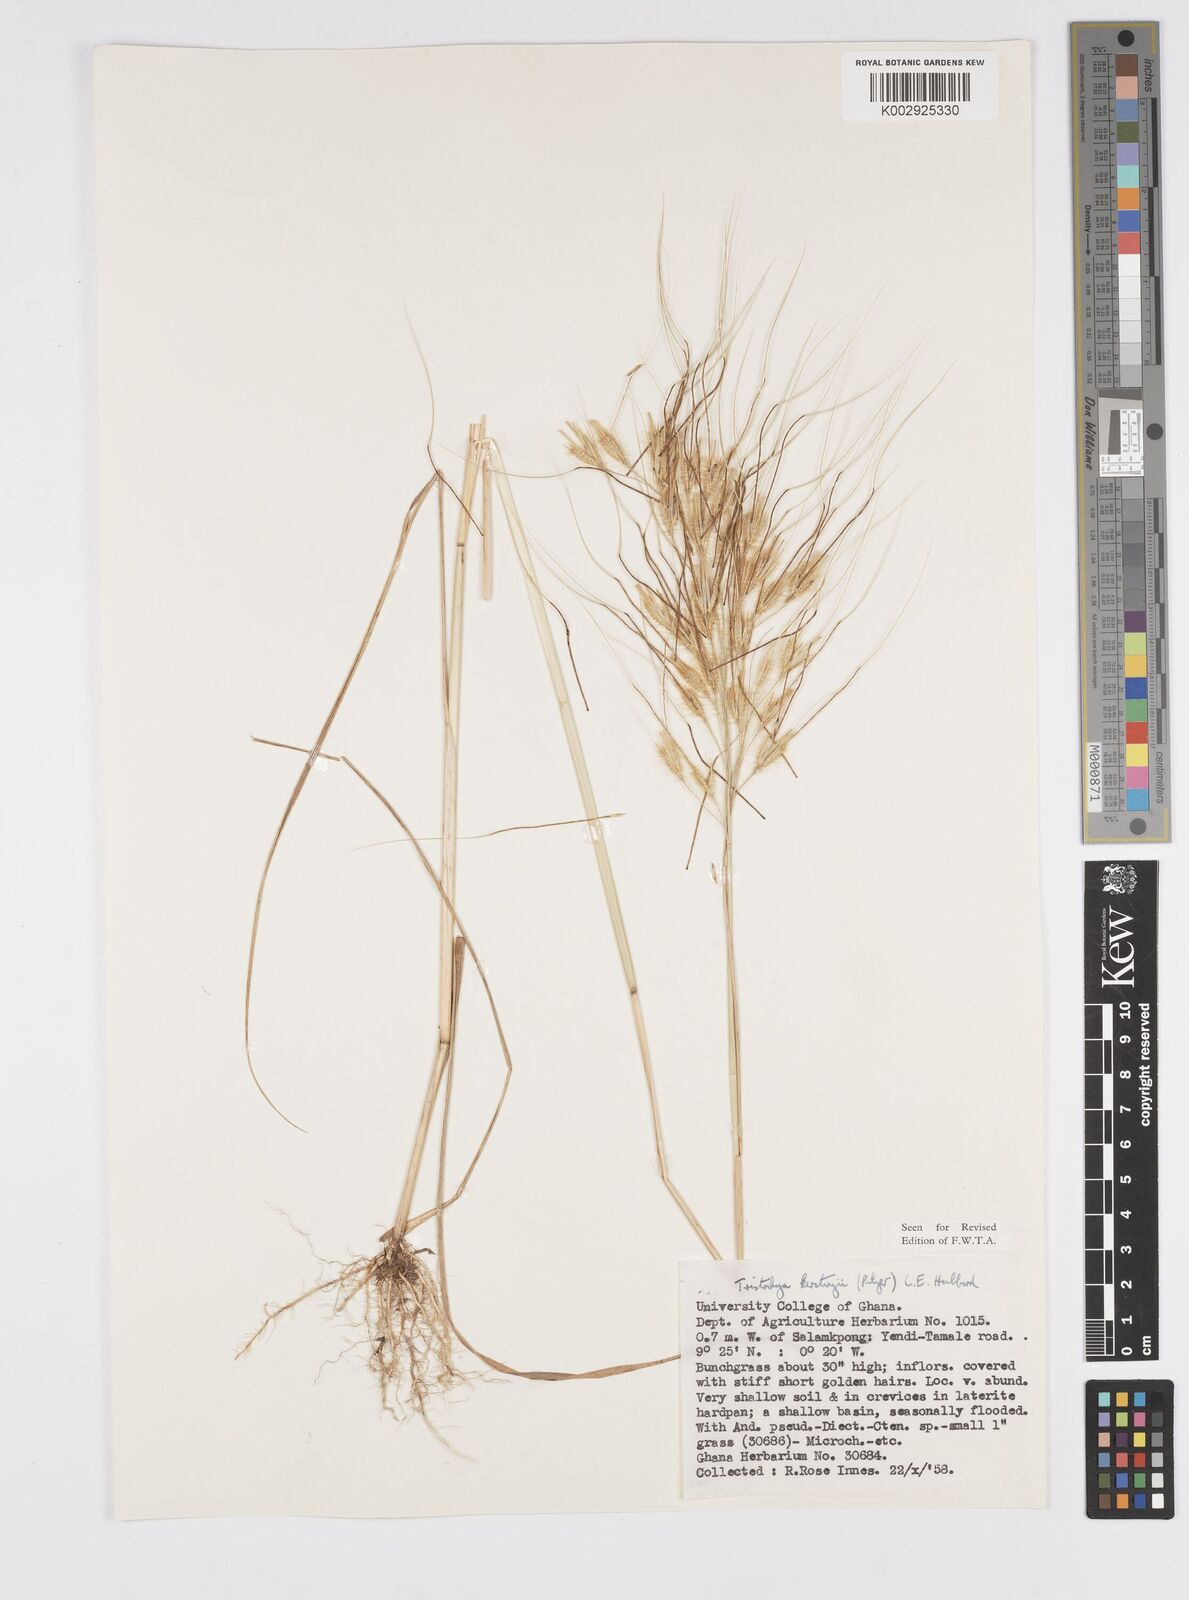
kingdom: Plantae
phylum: Tracheophyta
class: Liliopsida
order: Poales
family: Poaceae
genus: Loudetiopsis
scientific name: Loudetiopsis kerstingii
